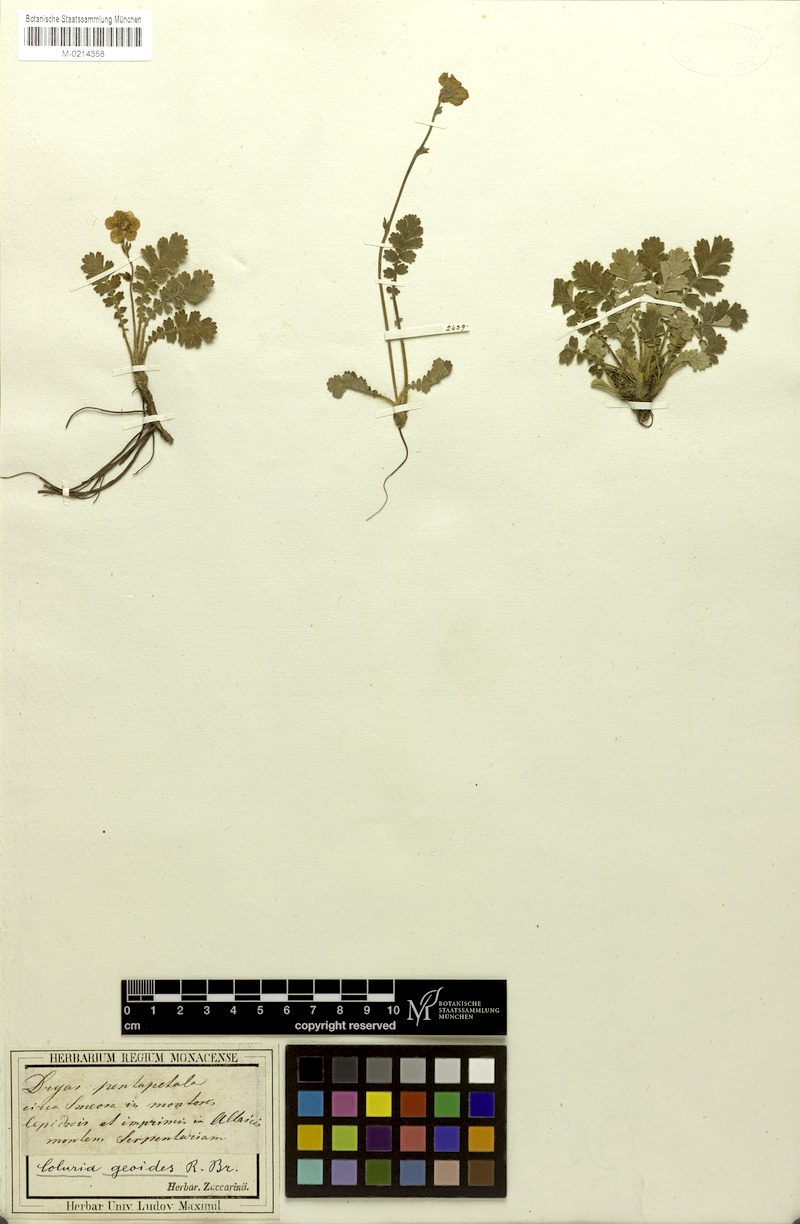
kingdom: Plantae
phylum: Tracheophyta
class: Magnoliopsida
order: Rosales
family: Rosaceae
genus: Geum
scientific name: Geum geoides
